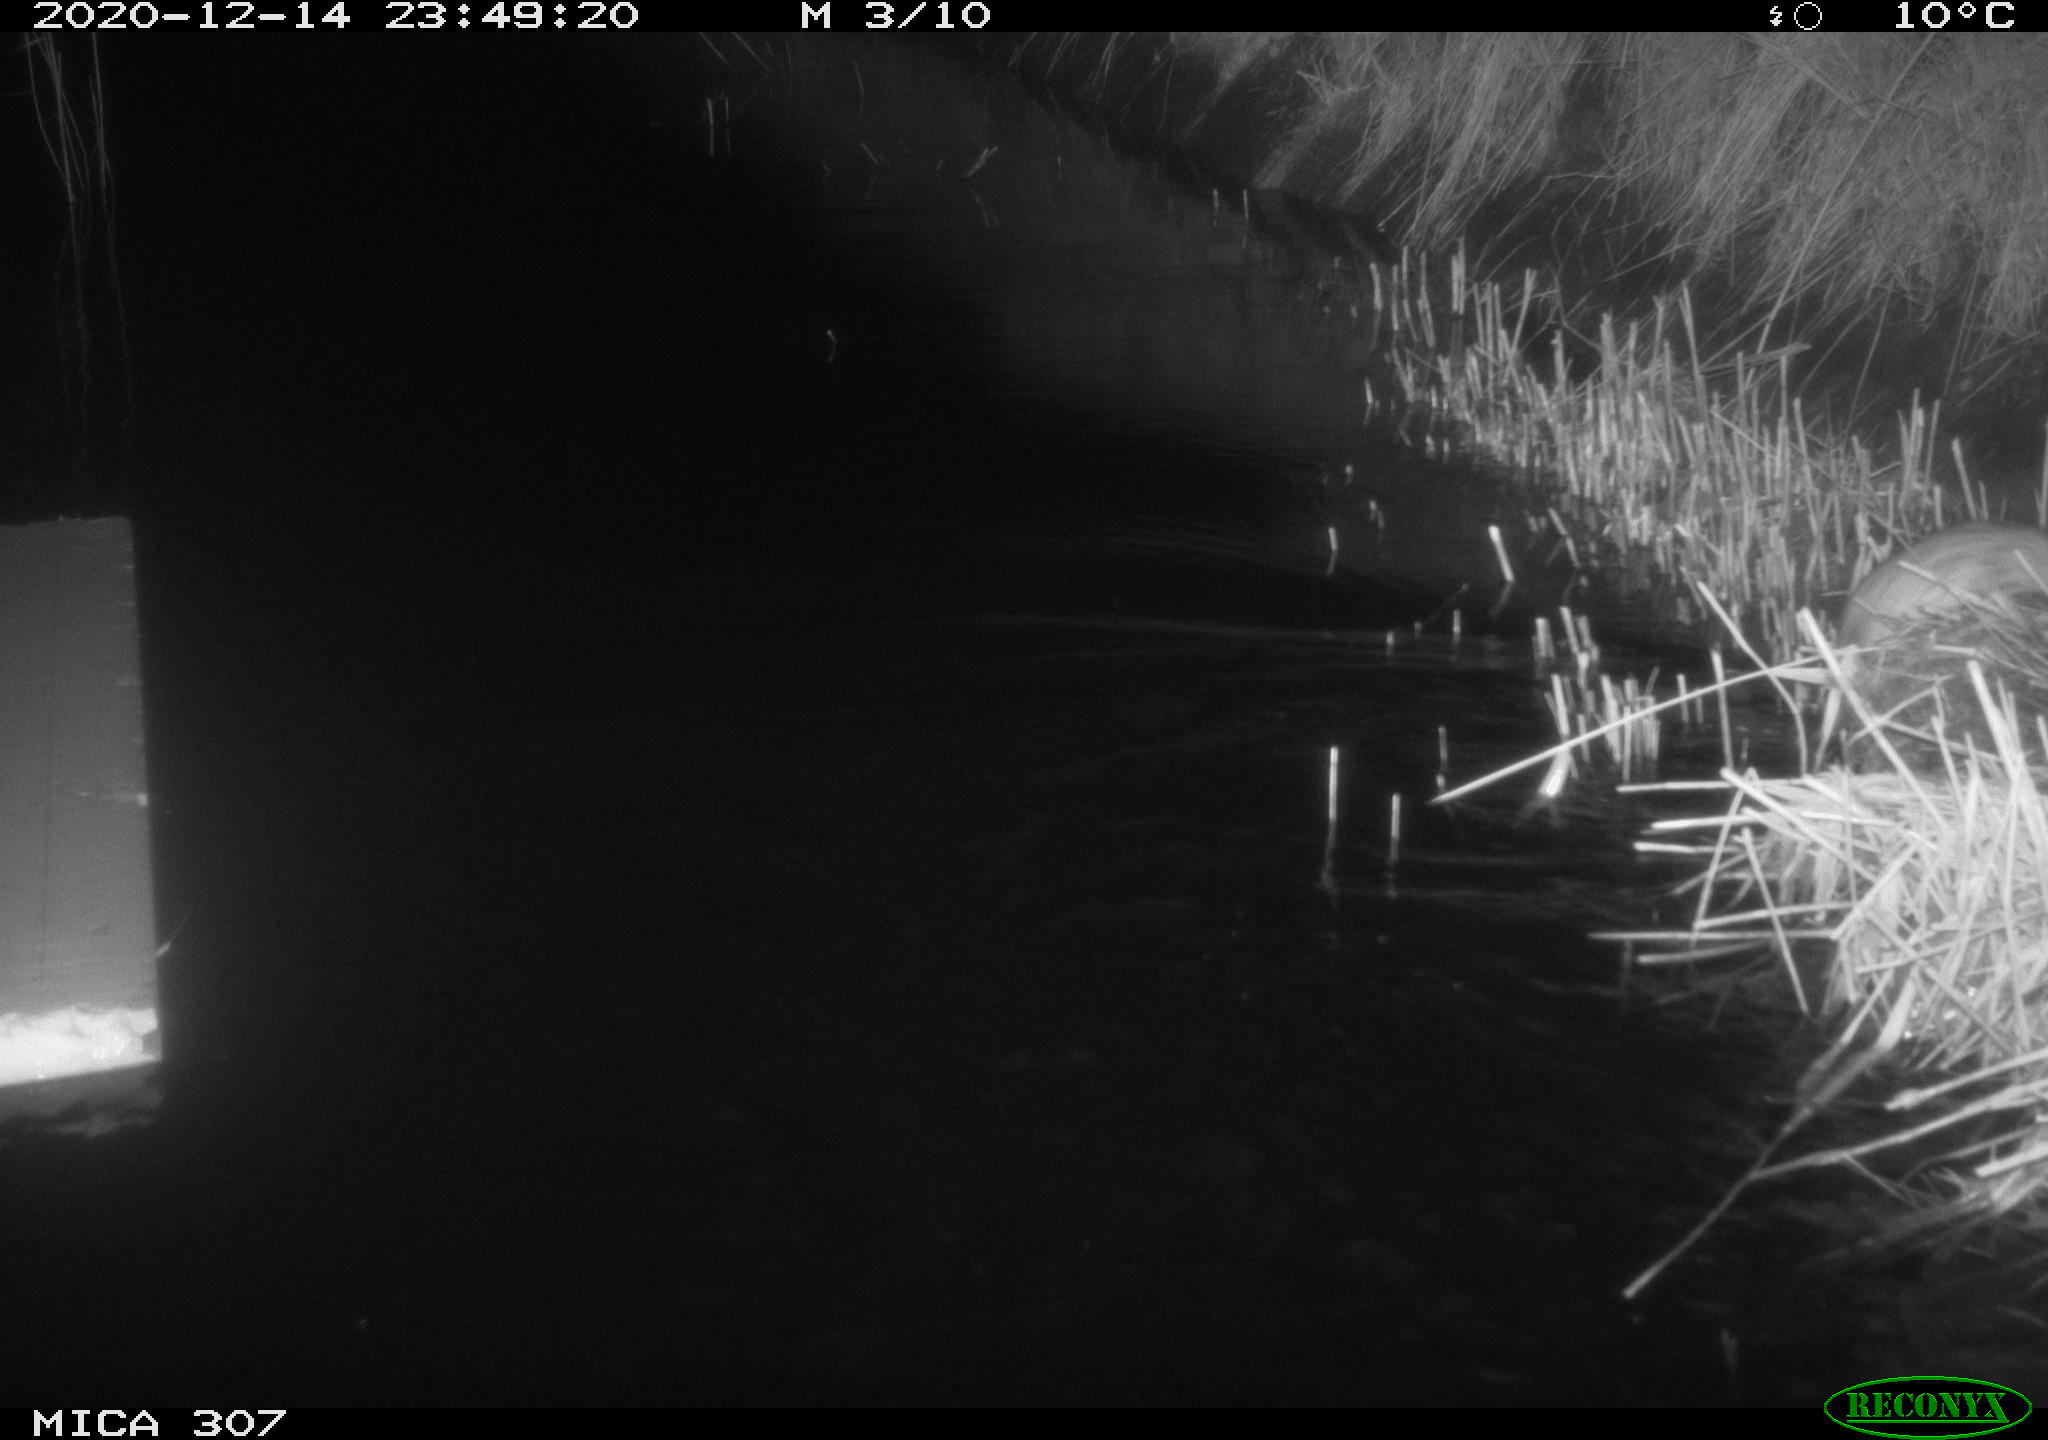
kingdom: Animalia
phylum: Chordata
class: Mammalia
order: Rodentia
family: Muridae
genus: Rattus
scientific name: Rattus norvegicus
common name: Brown rat
